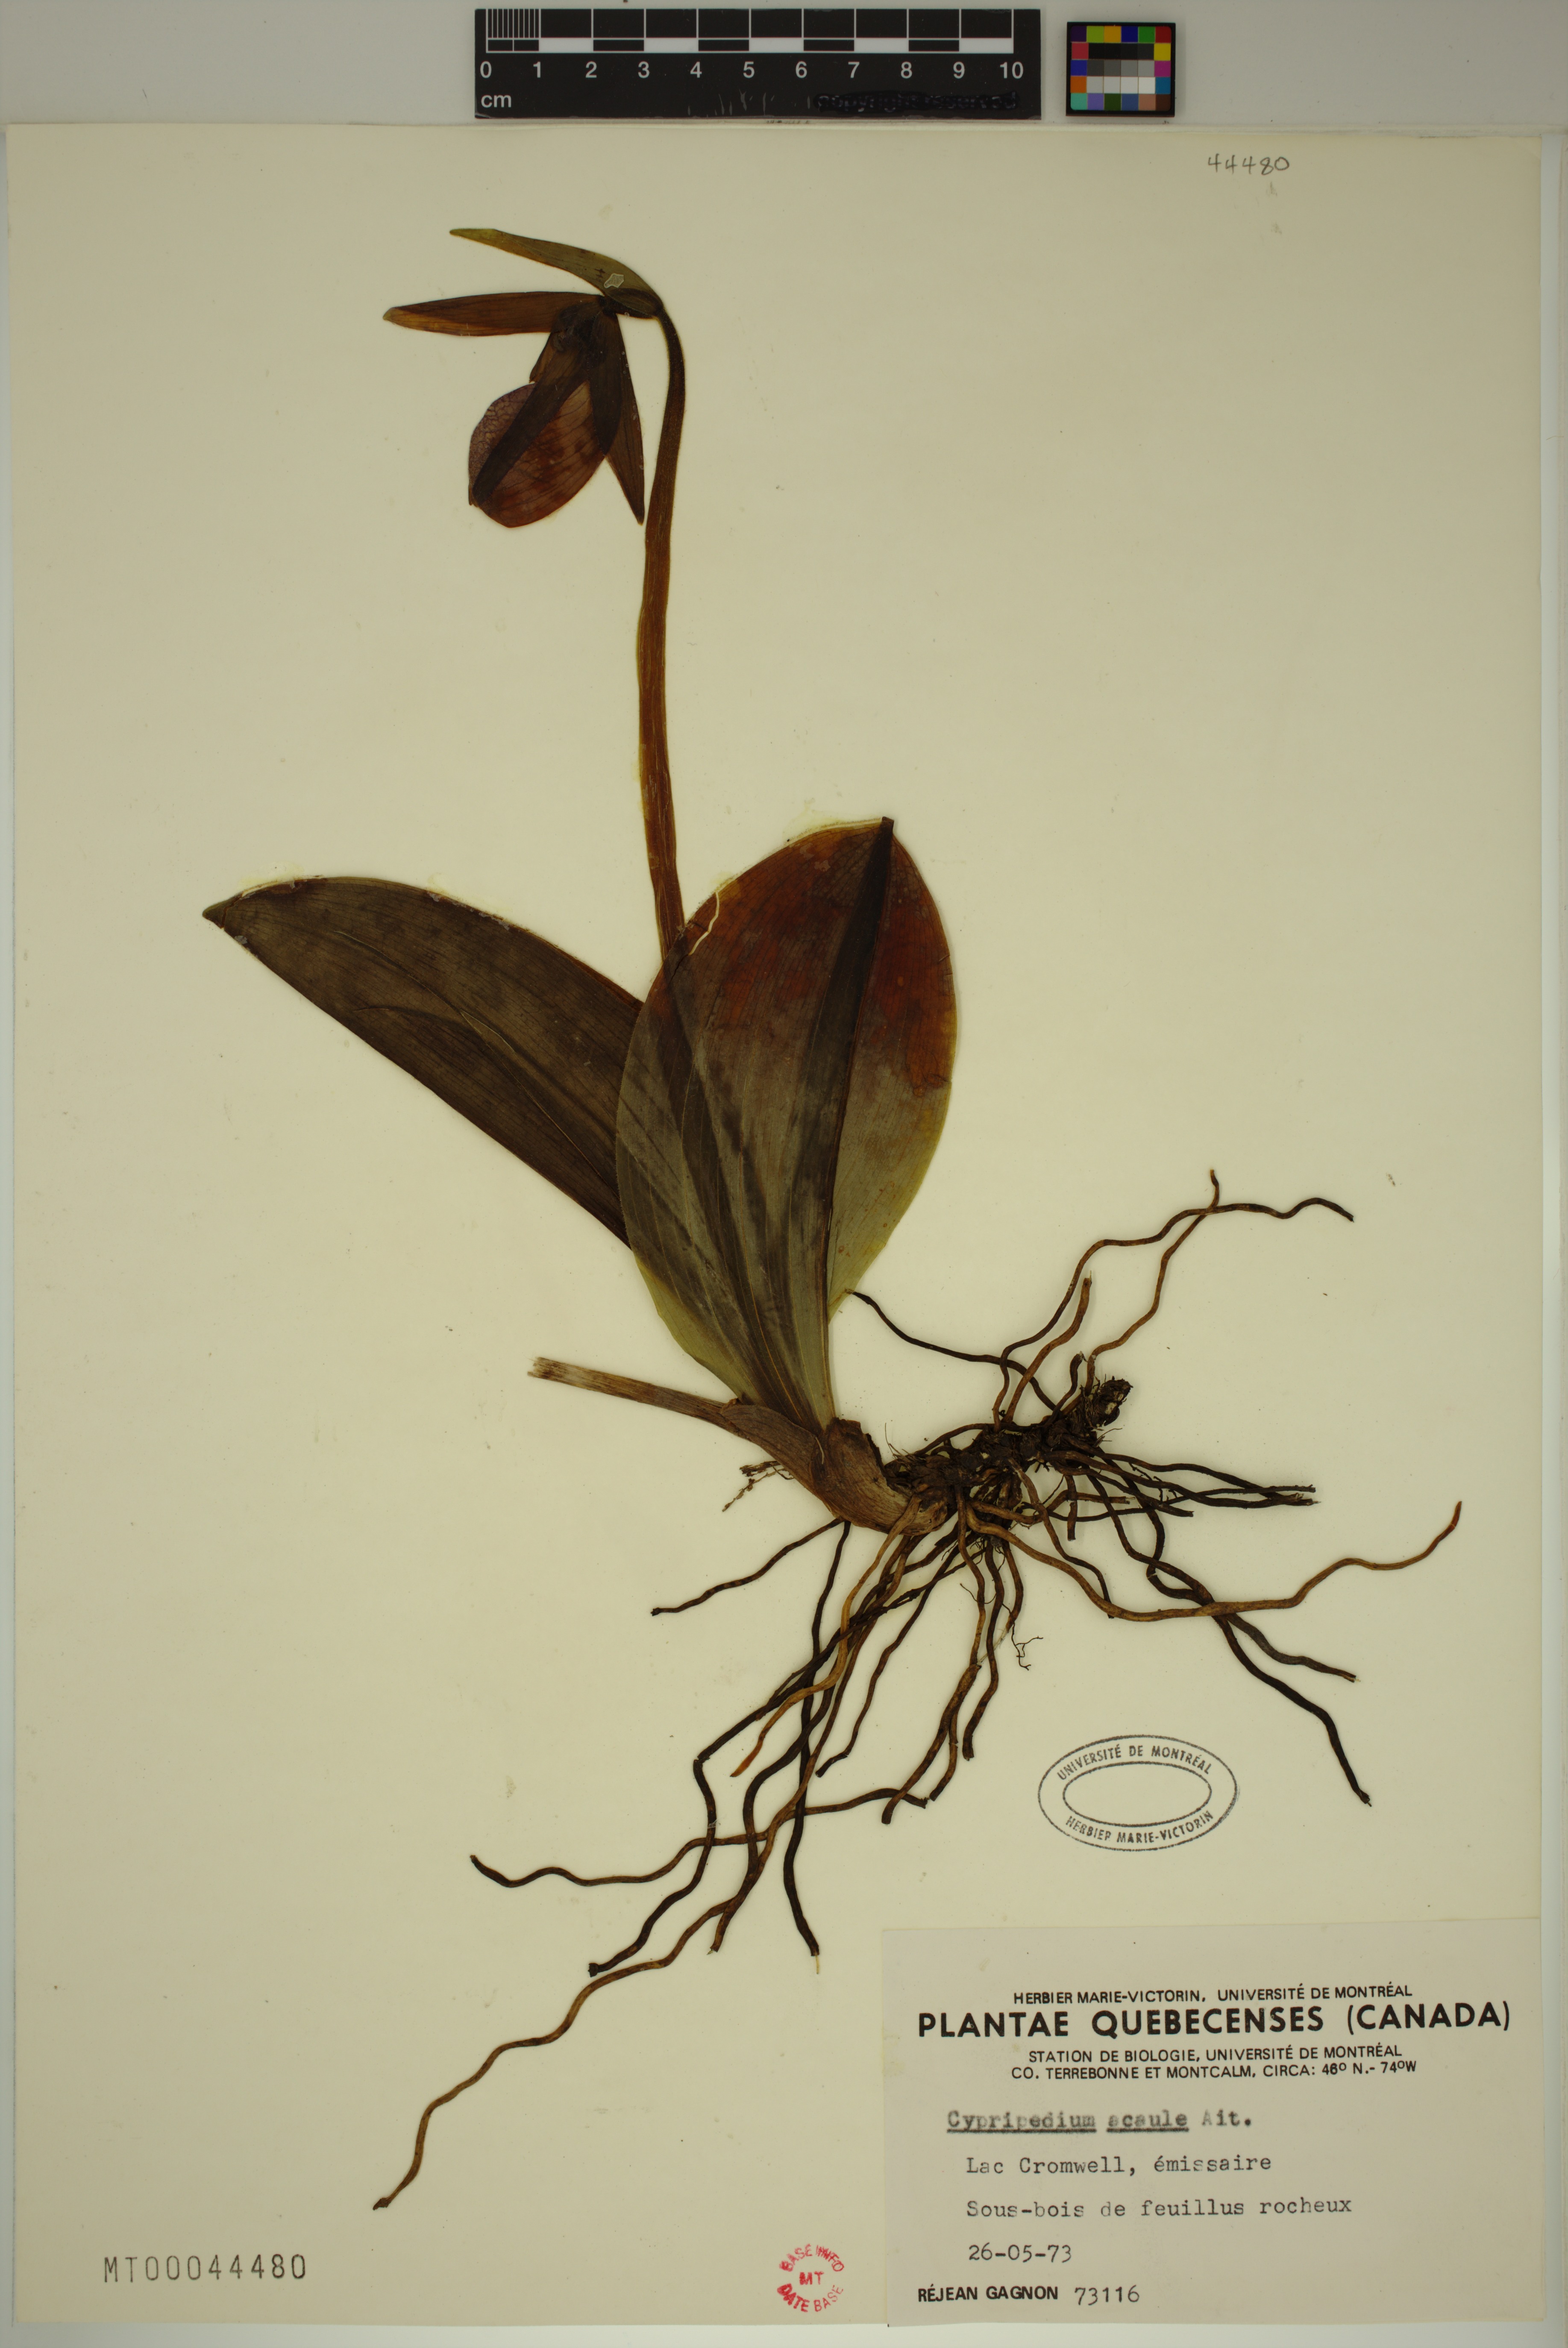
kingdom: Plantae
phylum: Tracheophyta
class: Liliopsida
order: Asparagales
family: Orchidaceae
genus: Cypripedium
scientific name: Cypripedium acaule
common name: Pink lady's-slipper
